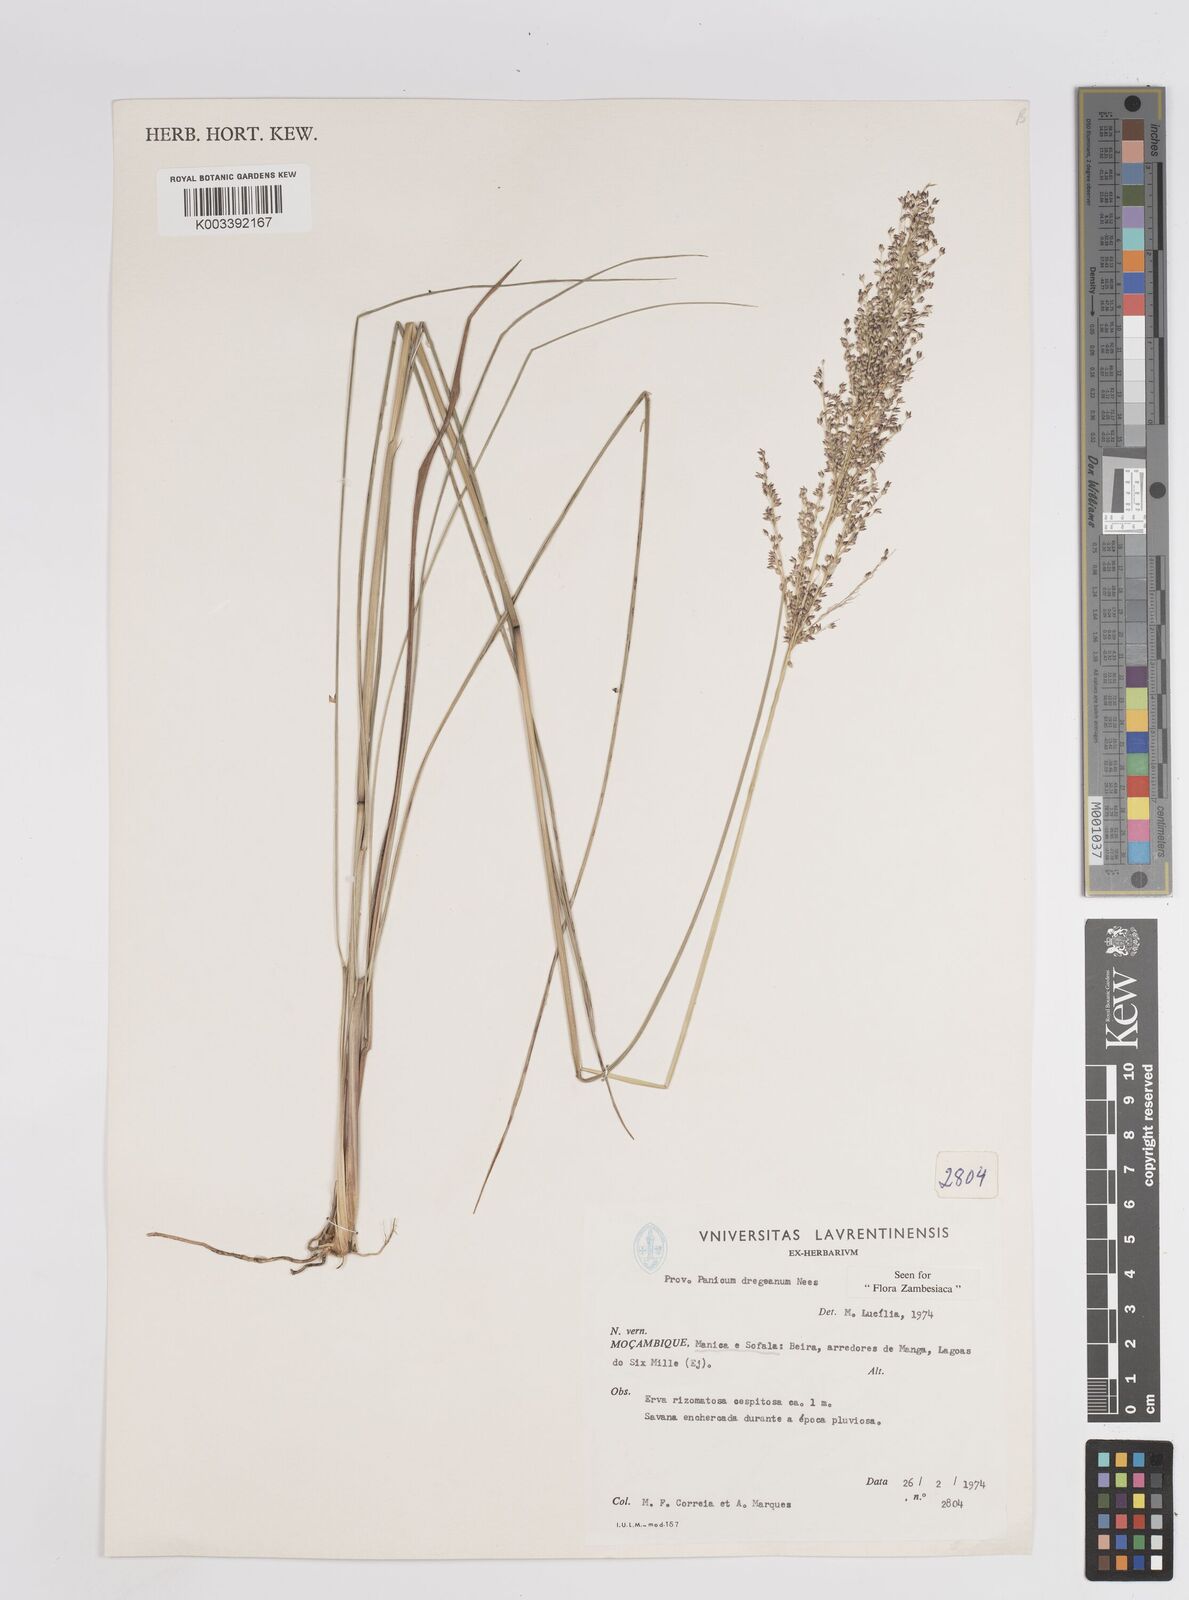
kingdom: Plantae
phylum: Tracheophyta
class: Liliopsida
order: Poales
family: Poaceae
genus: Panicum
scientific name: Panicum dregeanum
